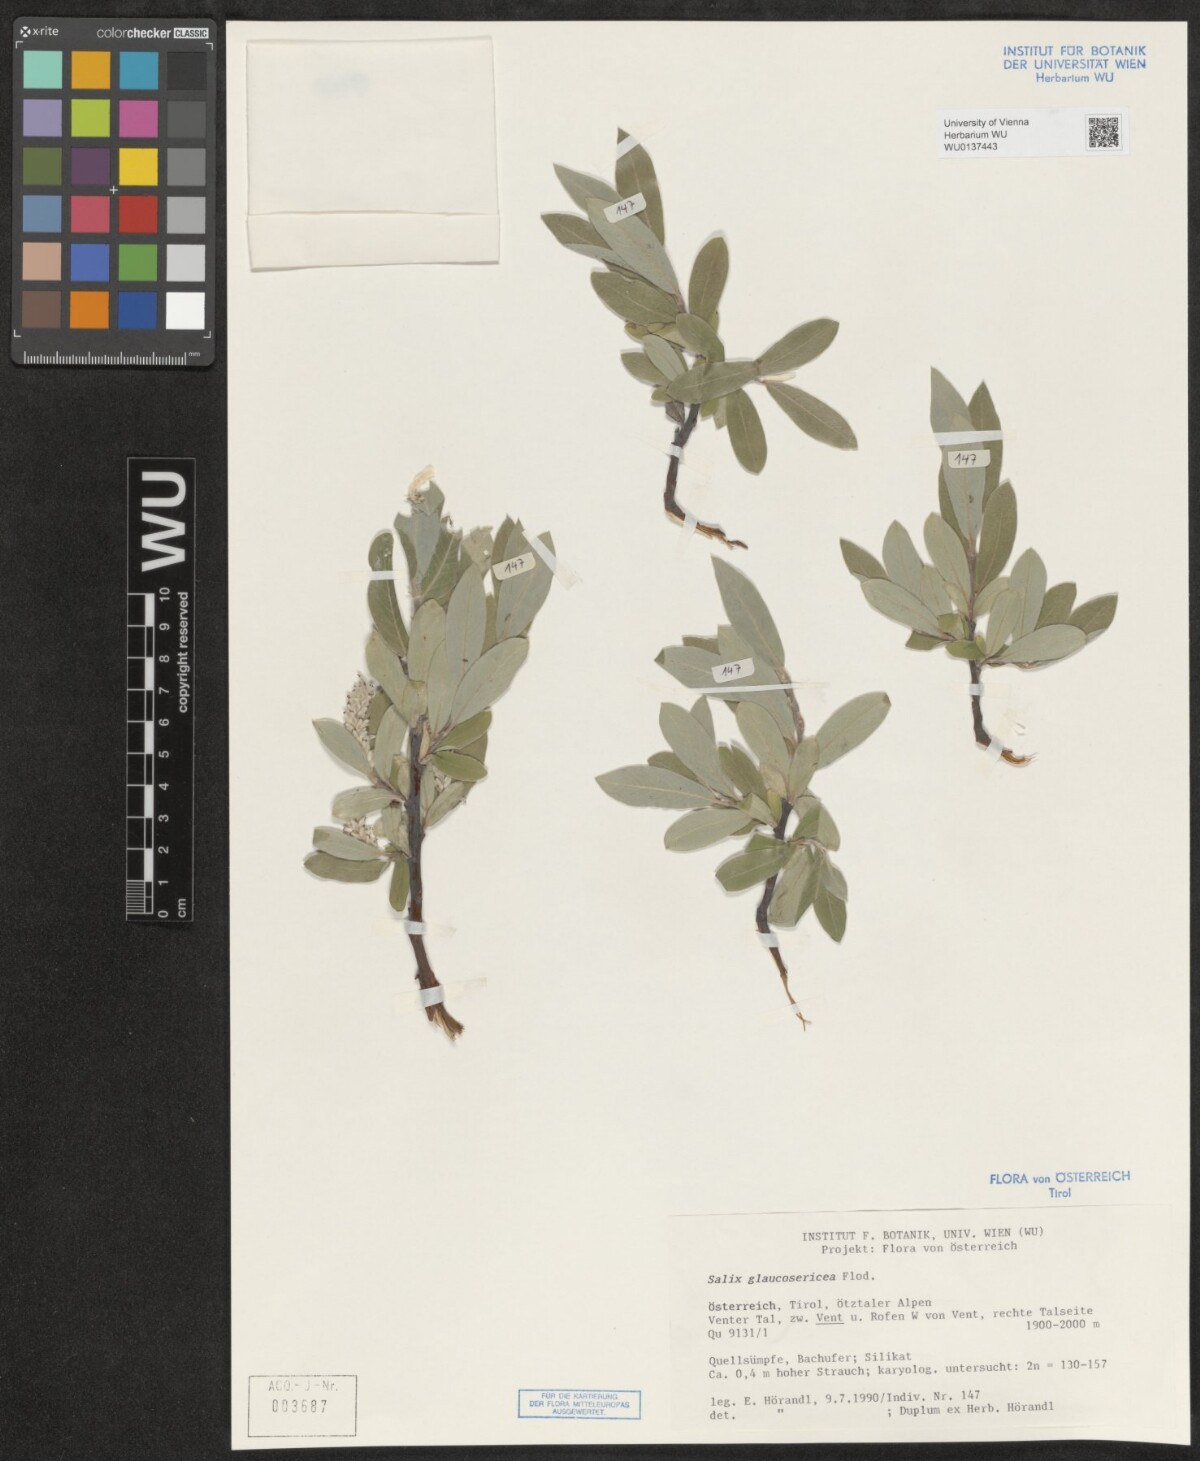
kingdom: Plantae
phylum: Tracheophyta
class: Magnoliopsida
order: Malpighiales
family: Salicaceae
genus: Salix
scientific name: Salix glaucosericea
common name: Alpine gray willow
